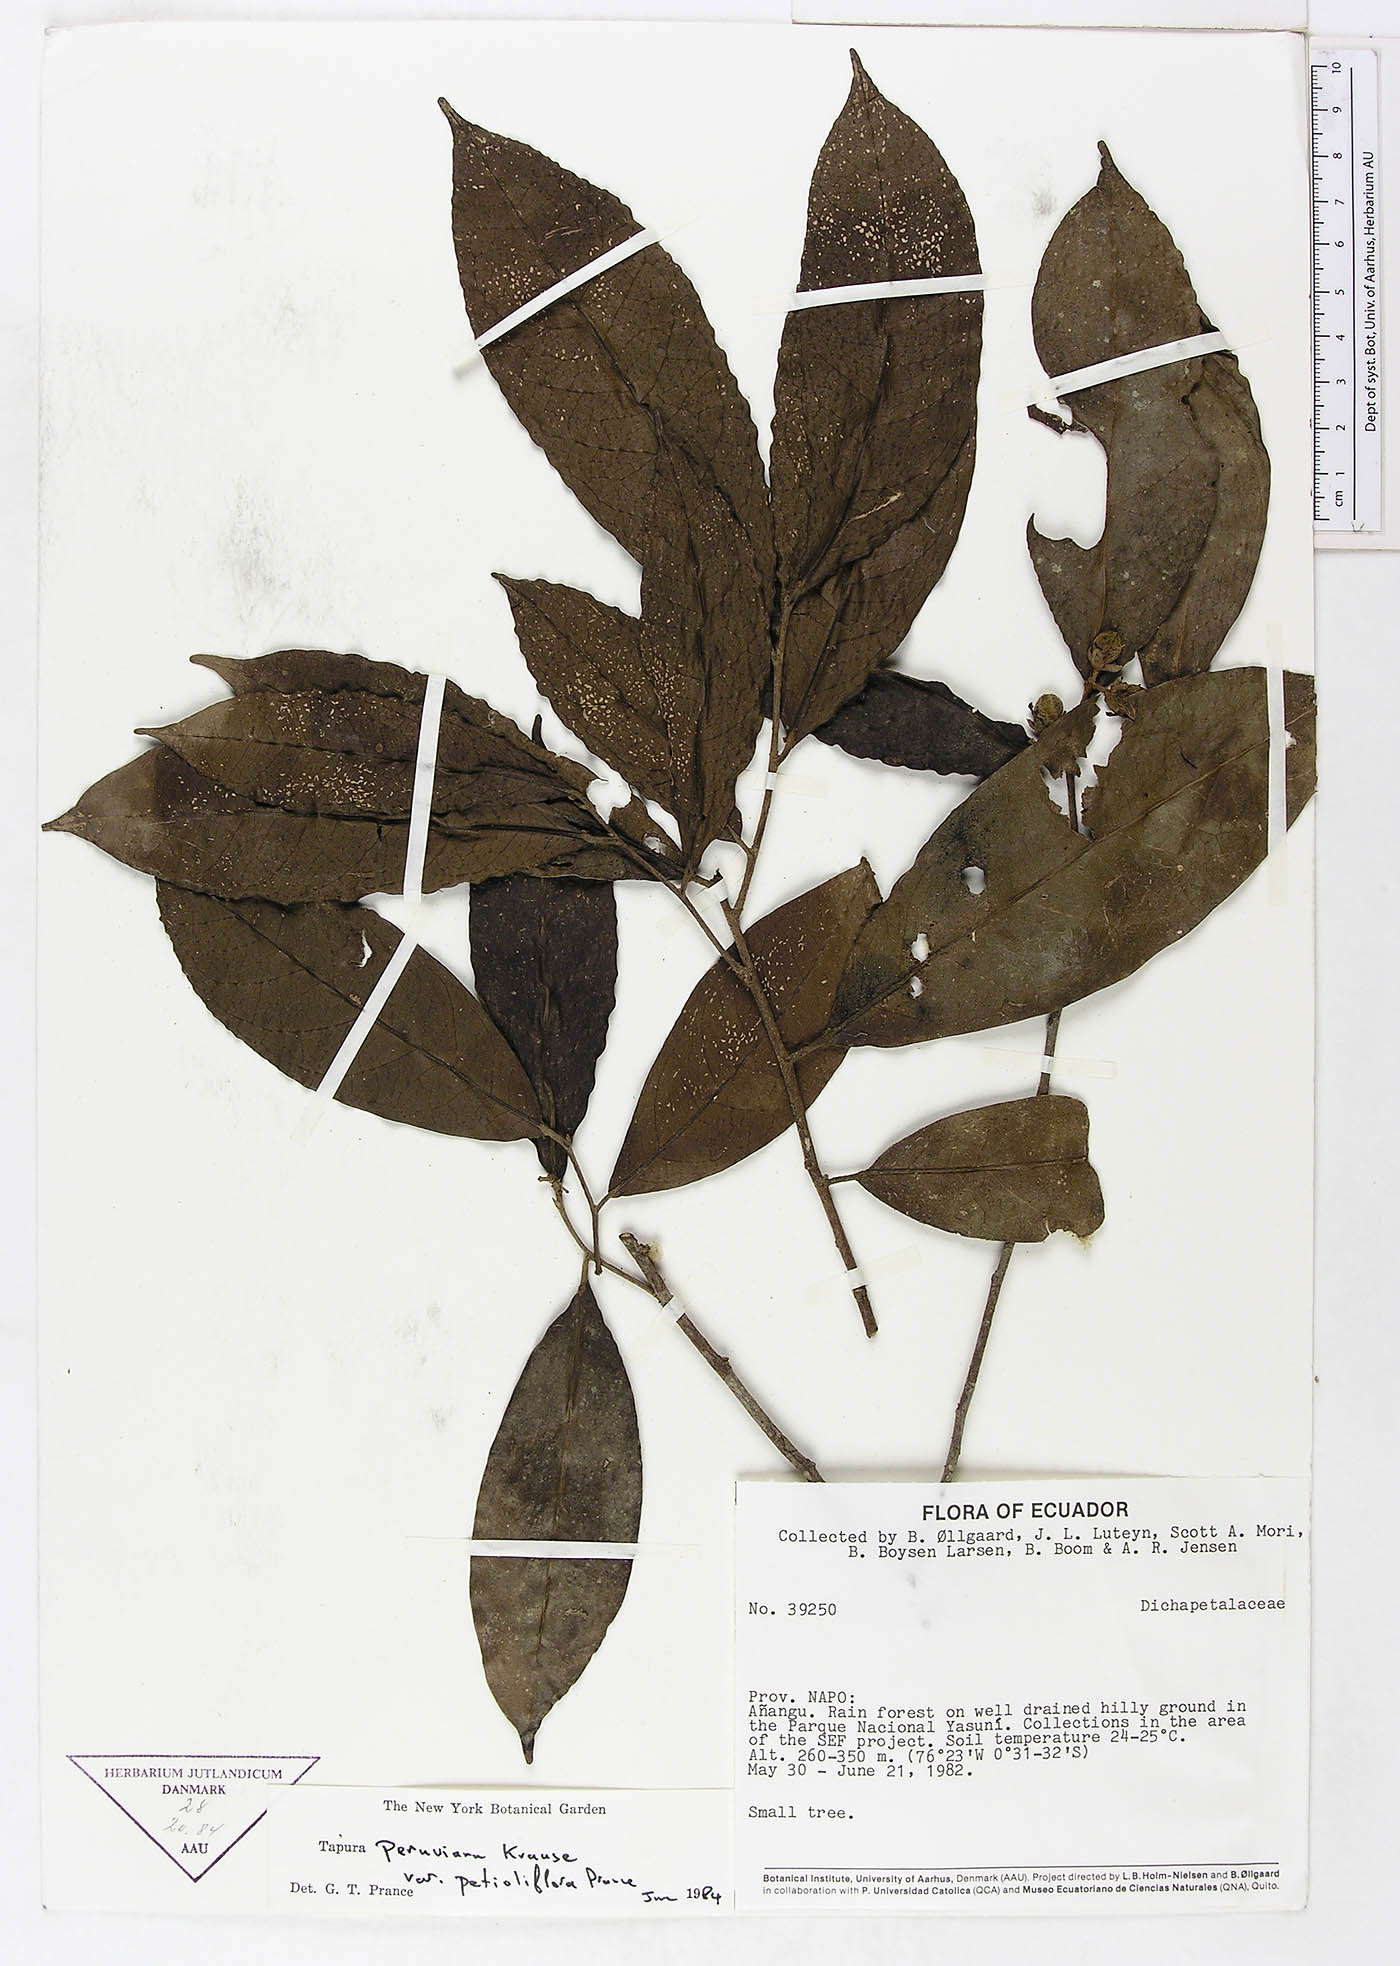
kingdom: Plantae
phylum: Tracheophyta
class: Magnoliopsida
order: Malpighiales
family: Dichapetalaceae
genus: Tapura
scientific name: Tapura peruviana
